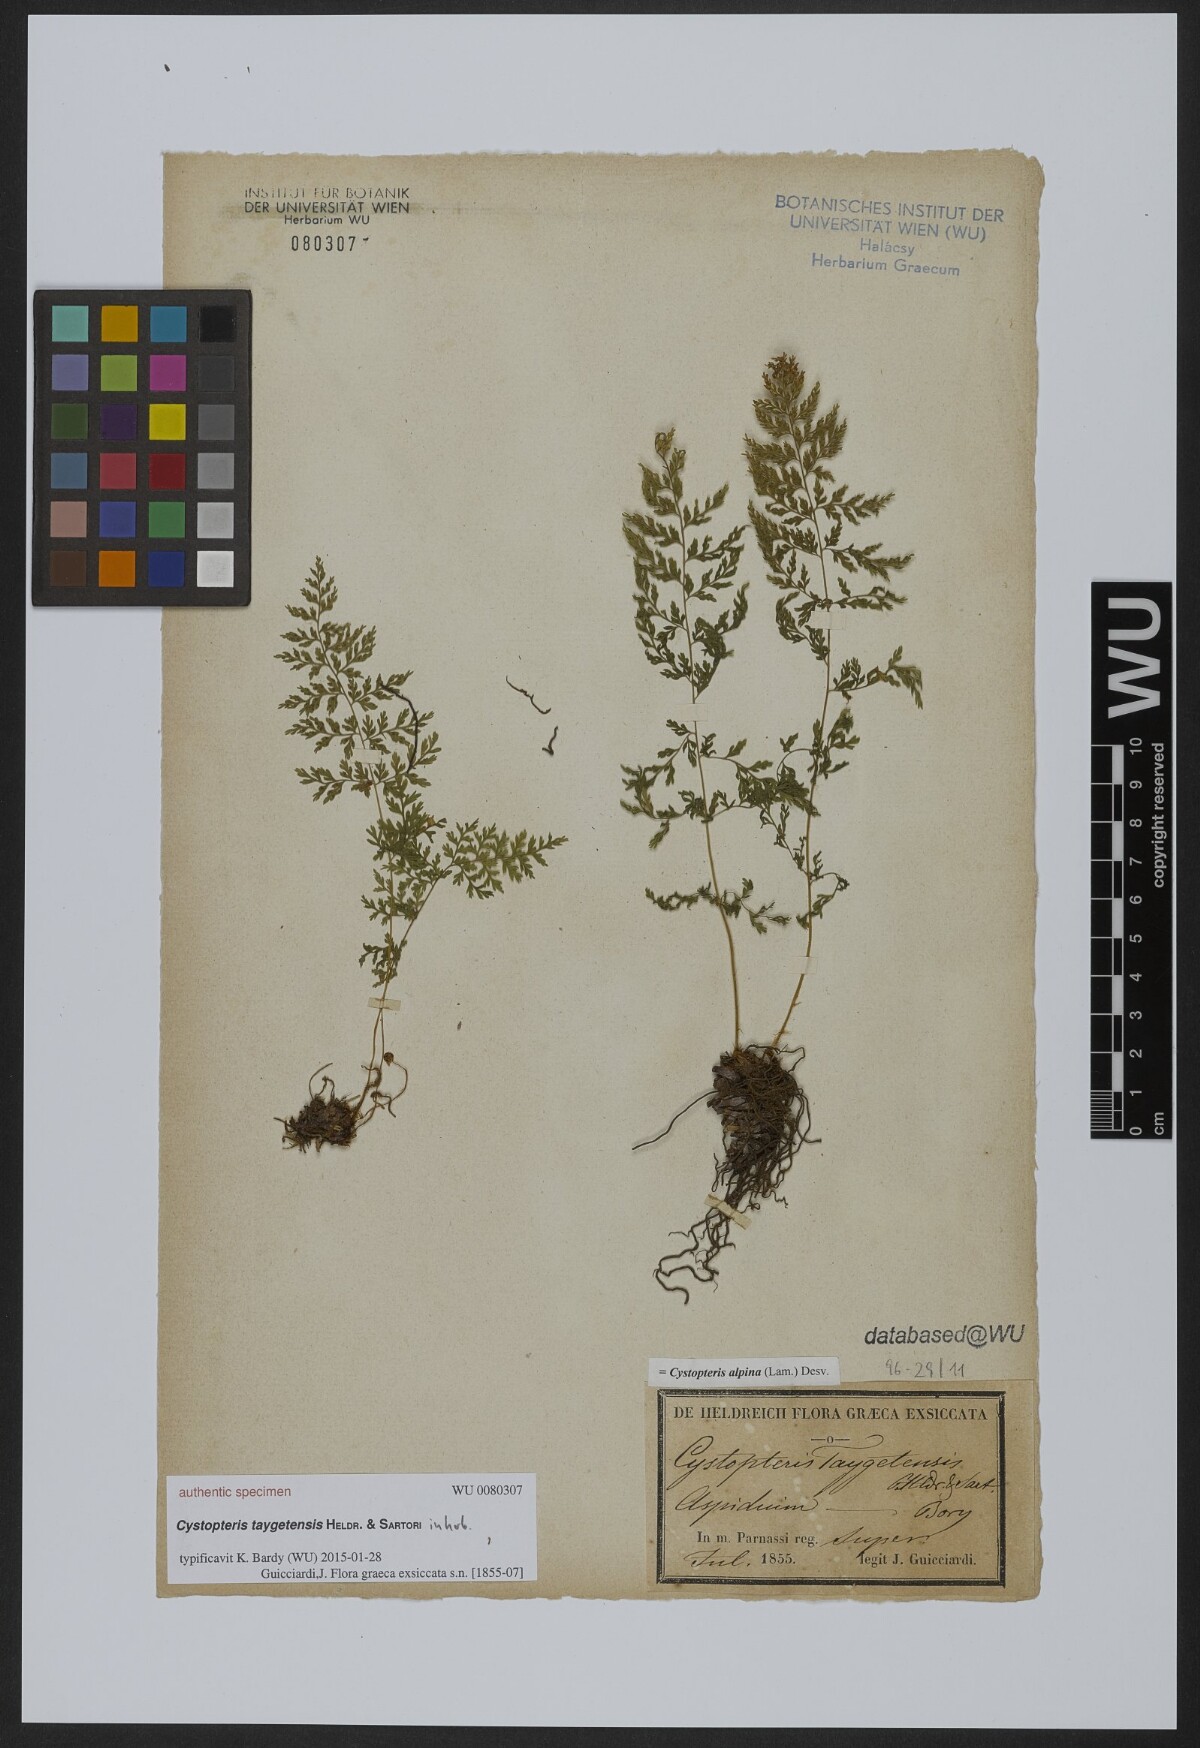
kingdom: Plantae
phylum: Tracheophyta
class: Polypodiopsida
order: Polypodiales
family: Cystopteridaceae
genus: Cystopteris
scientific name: Cystopteris alpina
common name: Alpine bladder-fern
